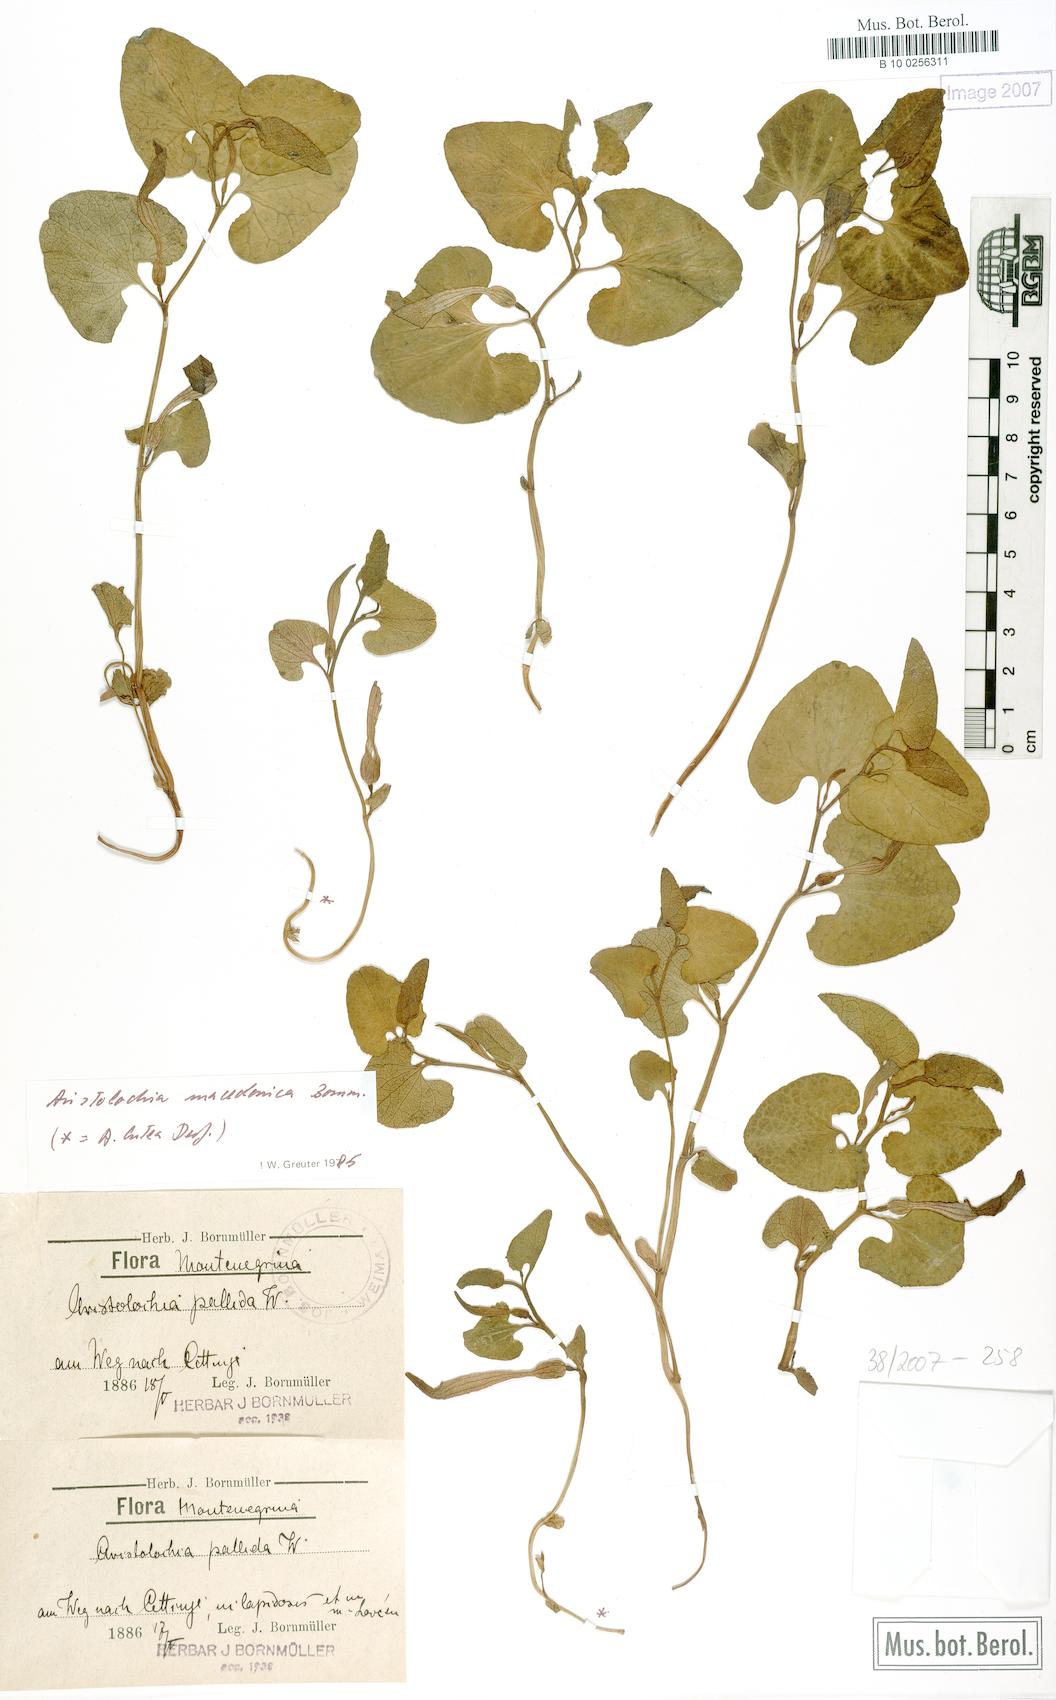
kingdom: Plantae
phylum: Tracheophyta
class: Magnoliopsida
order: Piperales
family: Aristolochiaceae
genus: Aristolochia
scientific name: Aristolochia pallida
